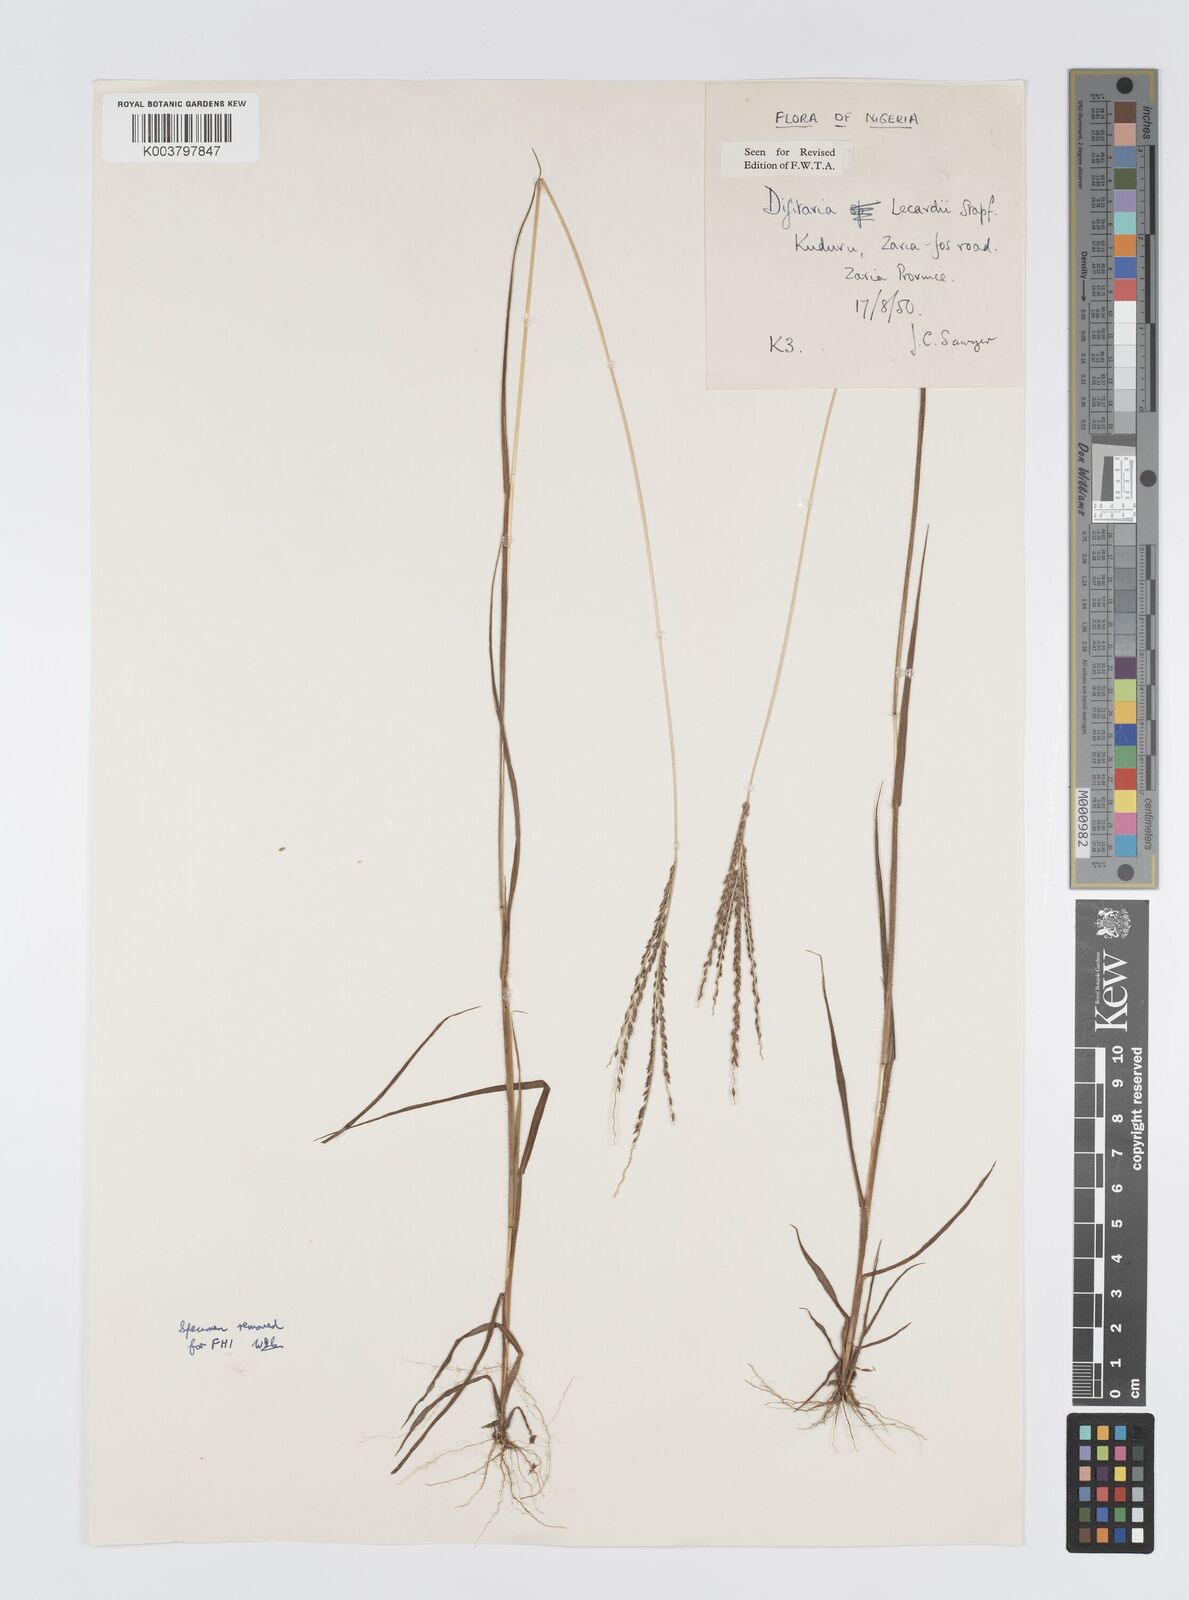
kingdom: Plantae
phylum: Tracheophyta
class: Liliopsida
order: Poales
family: Poaceae
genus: Digitaria
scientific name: Digitaria argillacea
